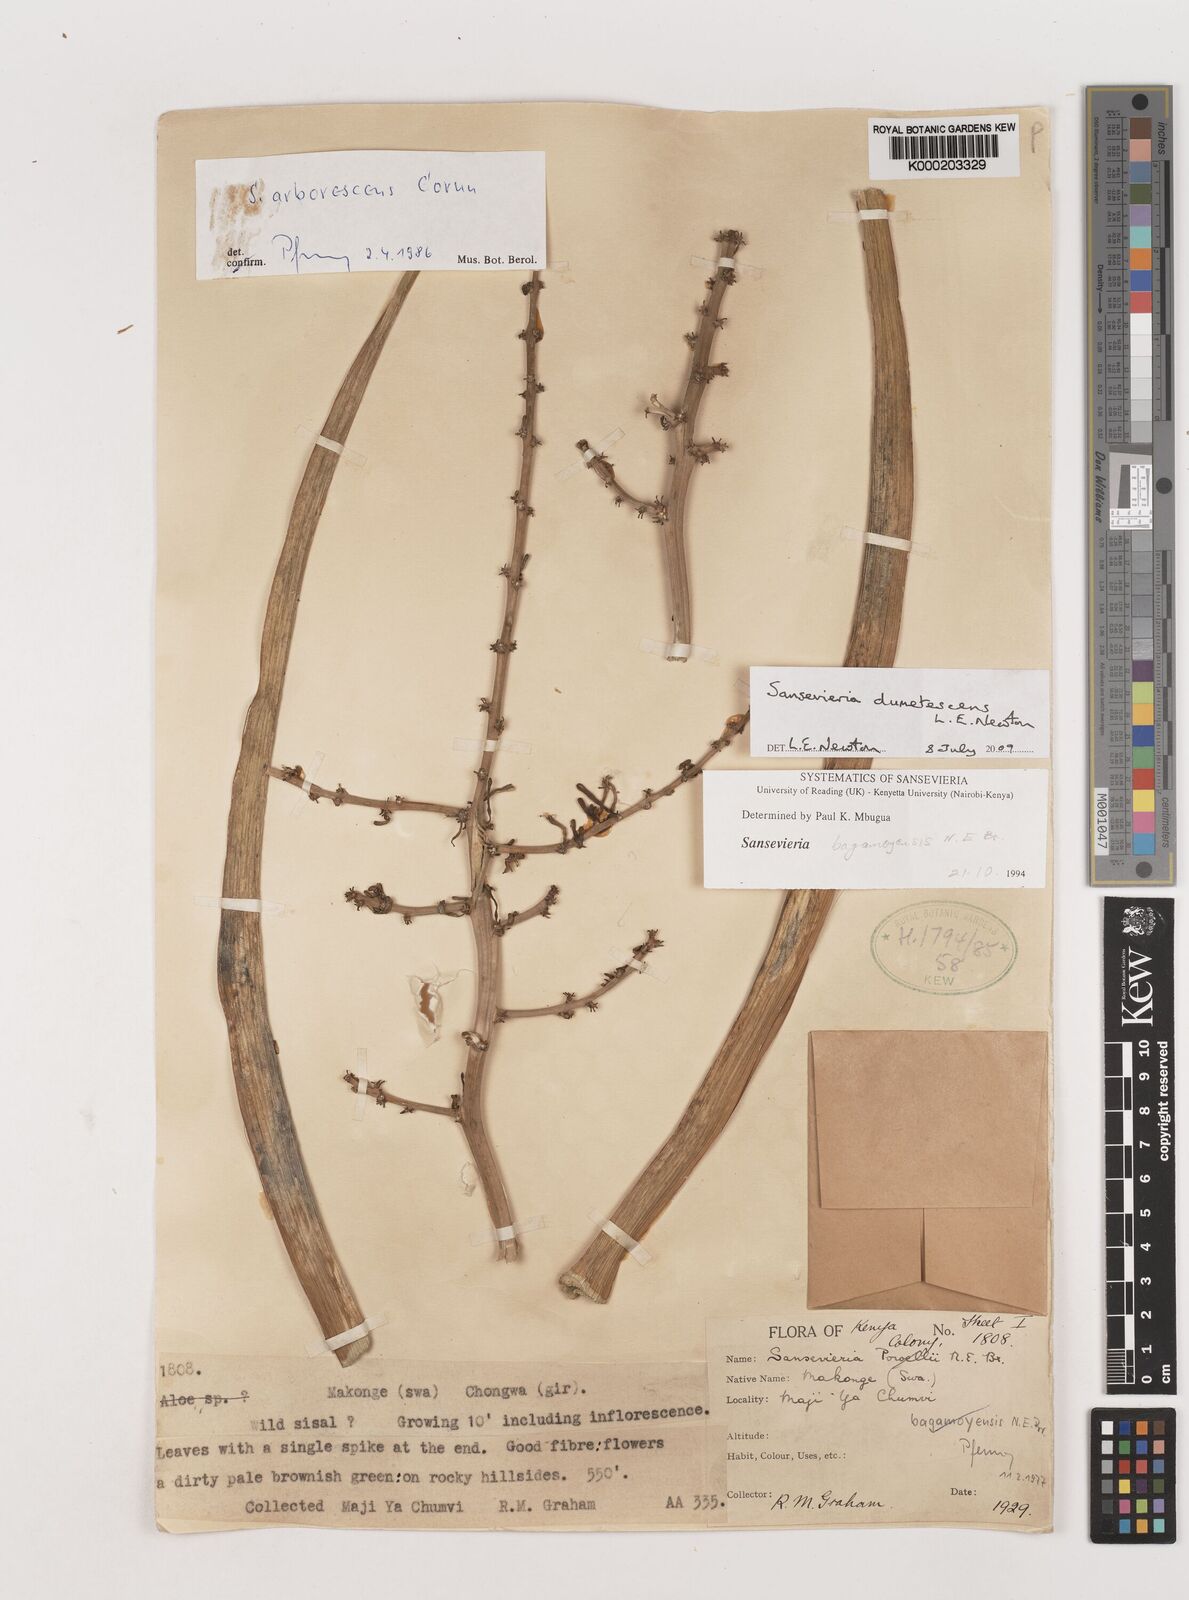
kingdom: Plantae
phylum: Tracheophyta
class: Liliopsida
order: Asparagales
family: Asparagaceae
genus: Dracaena
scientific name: Dracaena
